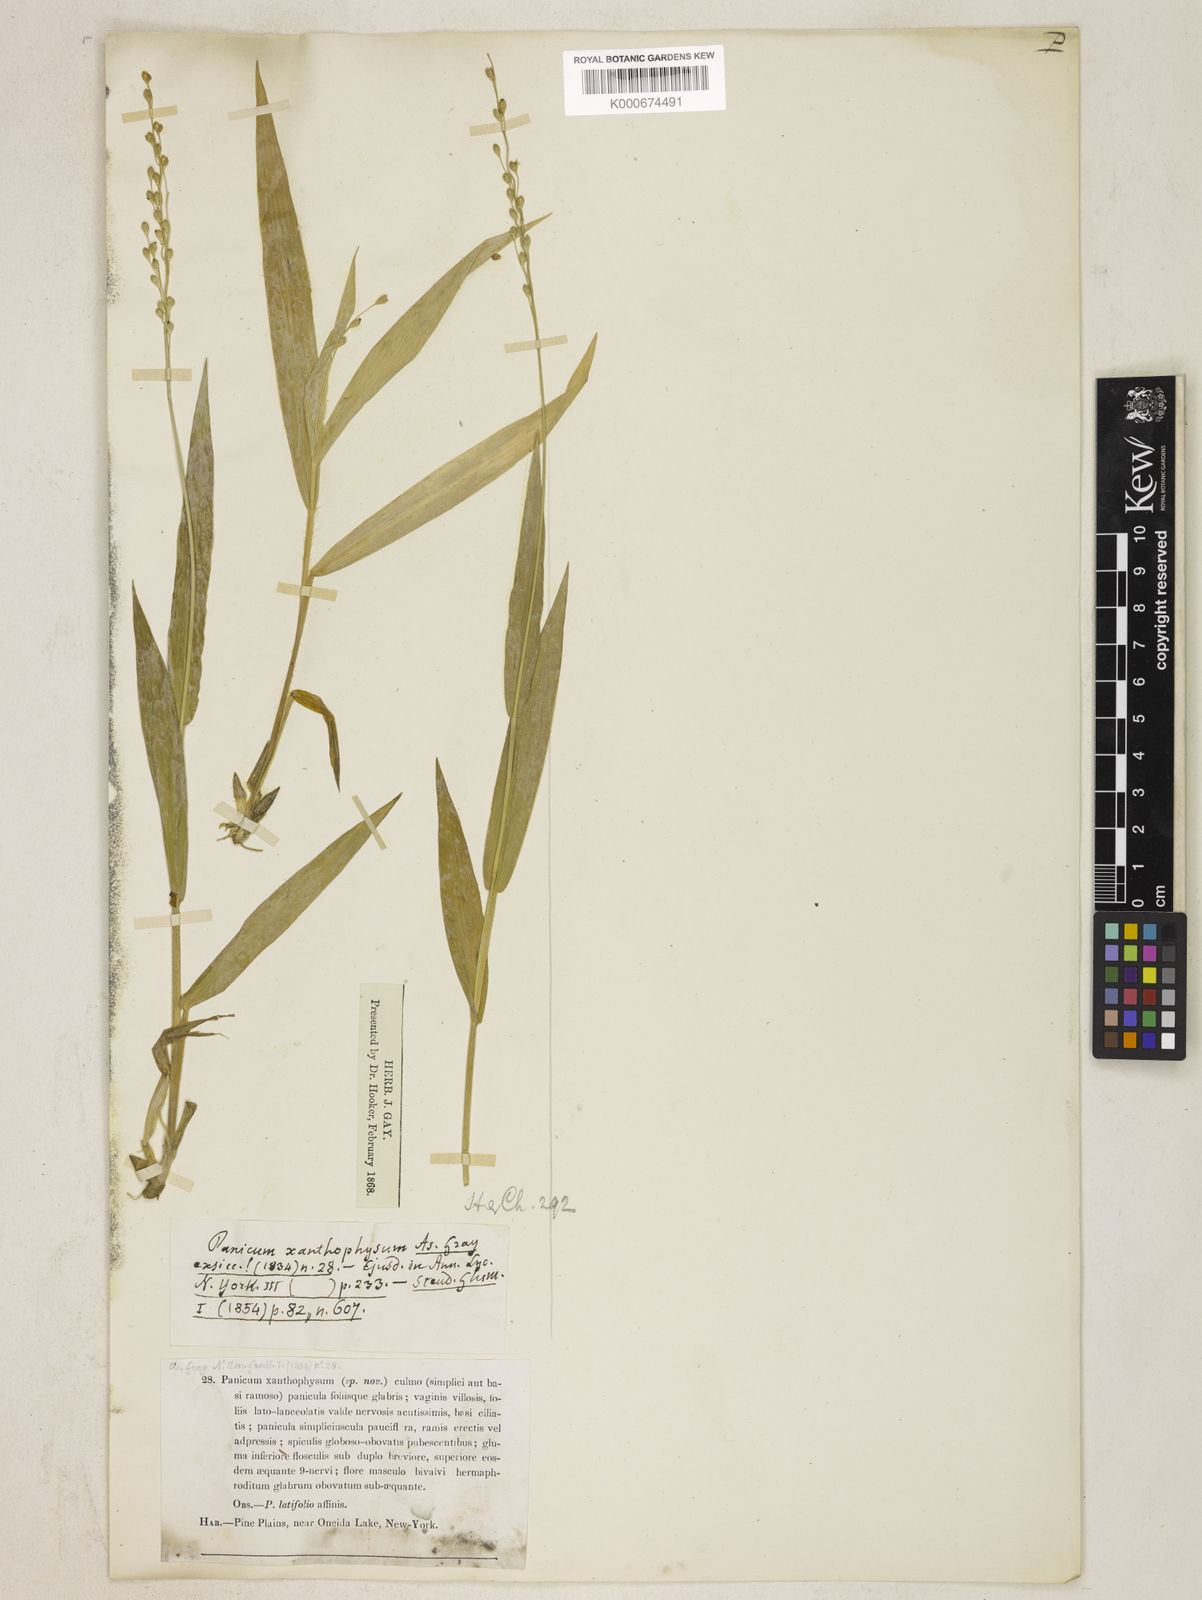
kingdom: Plantae
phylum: Tracheophyta
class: Liliopsida
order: Poales
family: Poaceae
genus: Dichanthelium
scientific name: Dichanthelium xanthophysum
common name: Pale panicgrass
